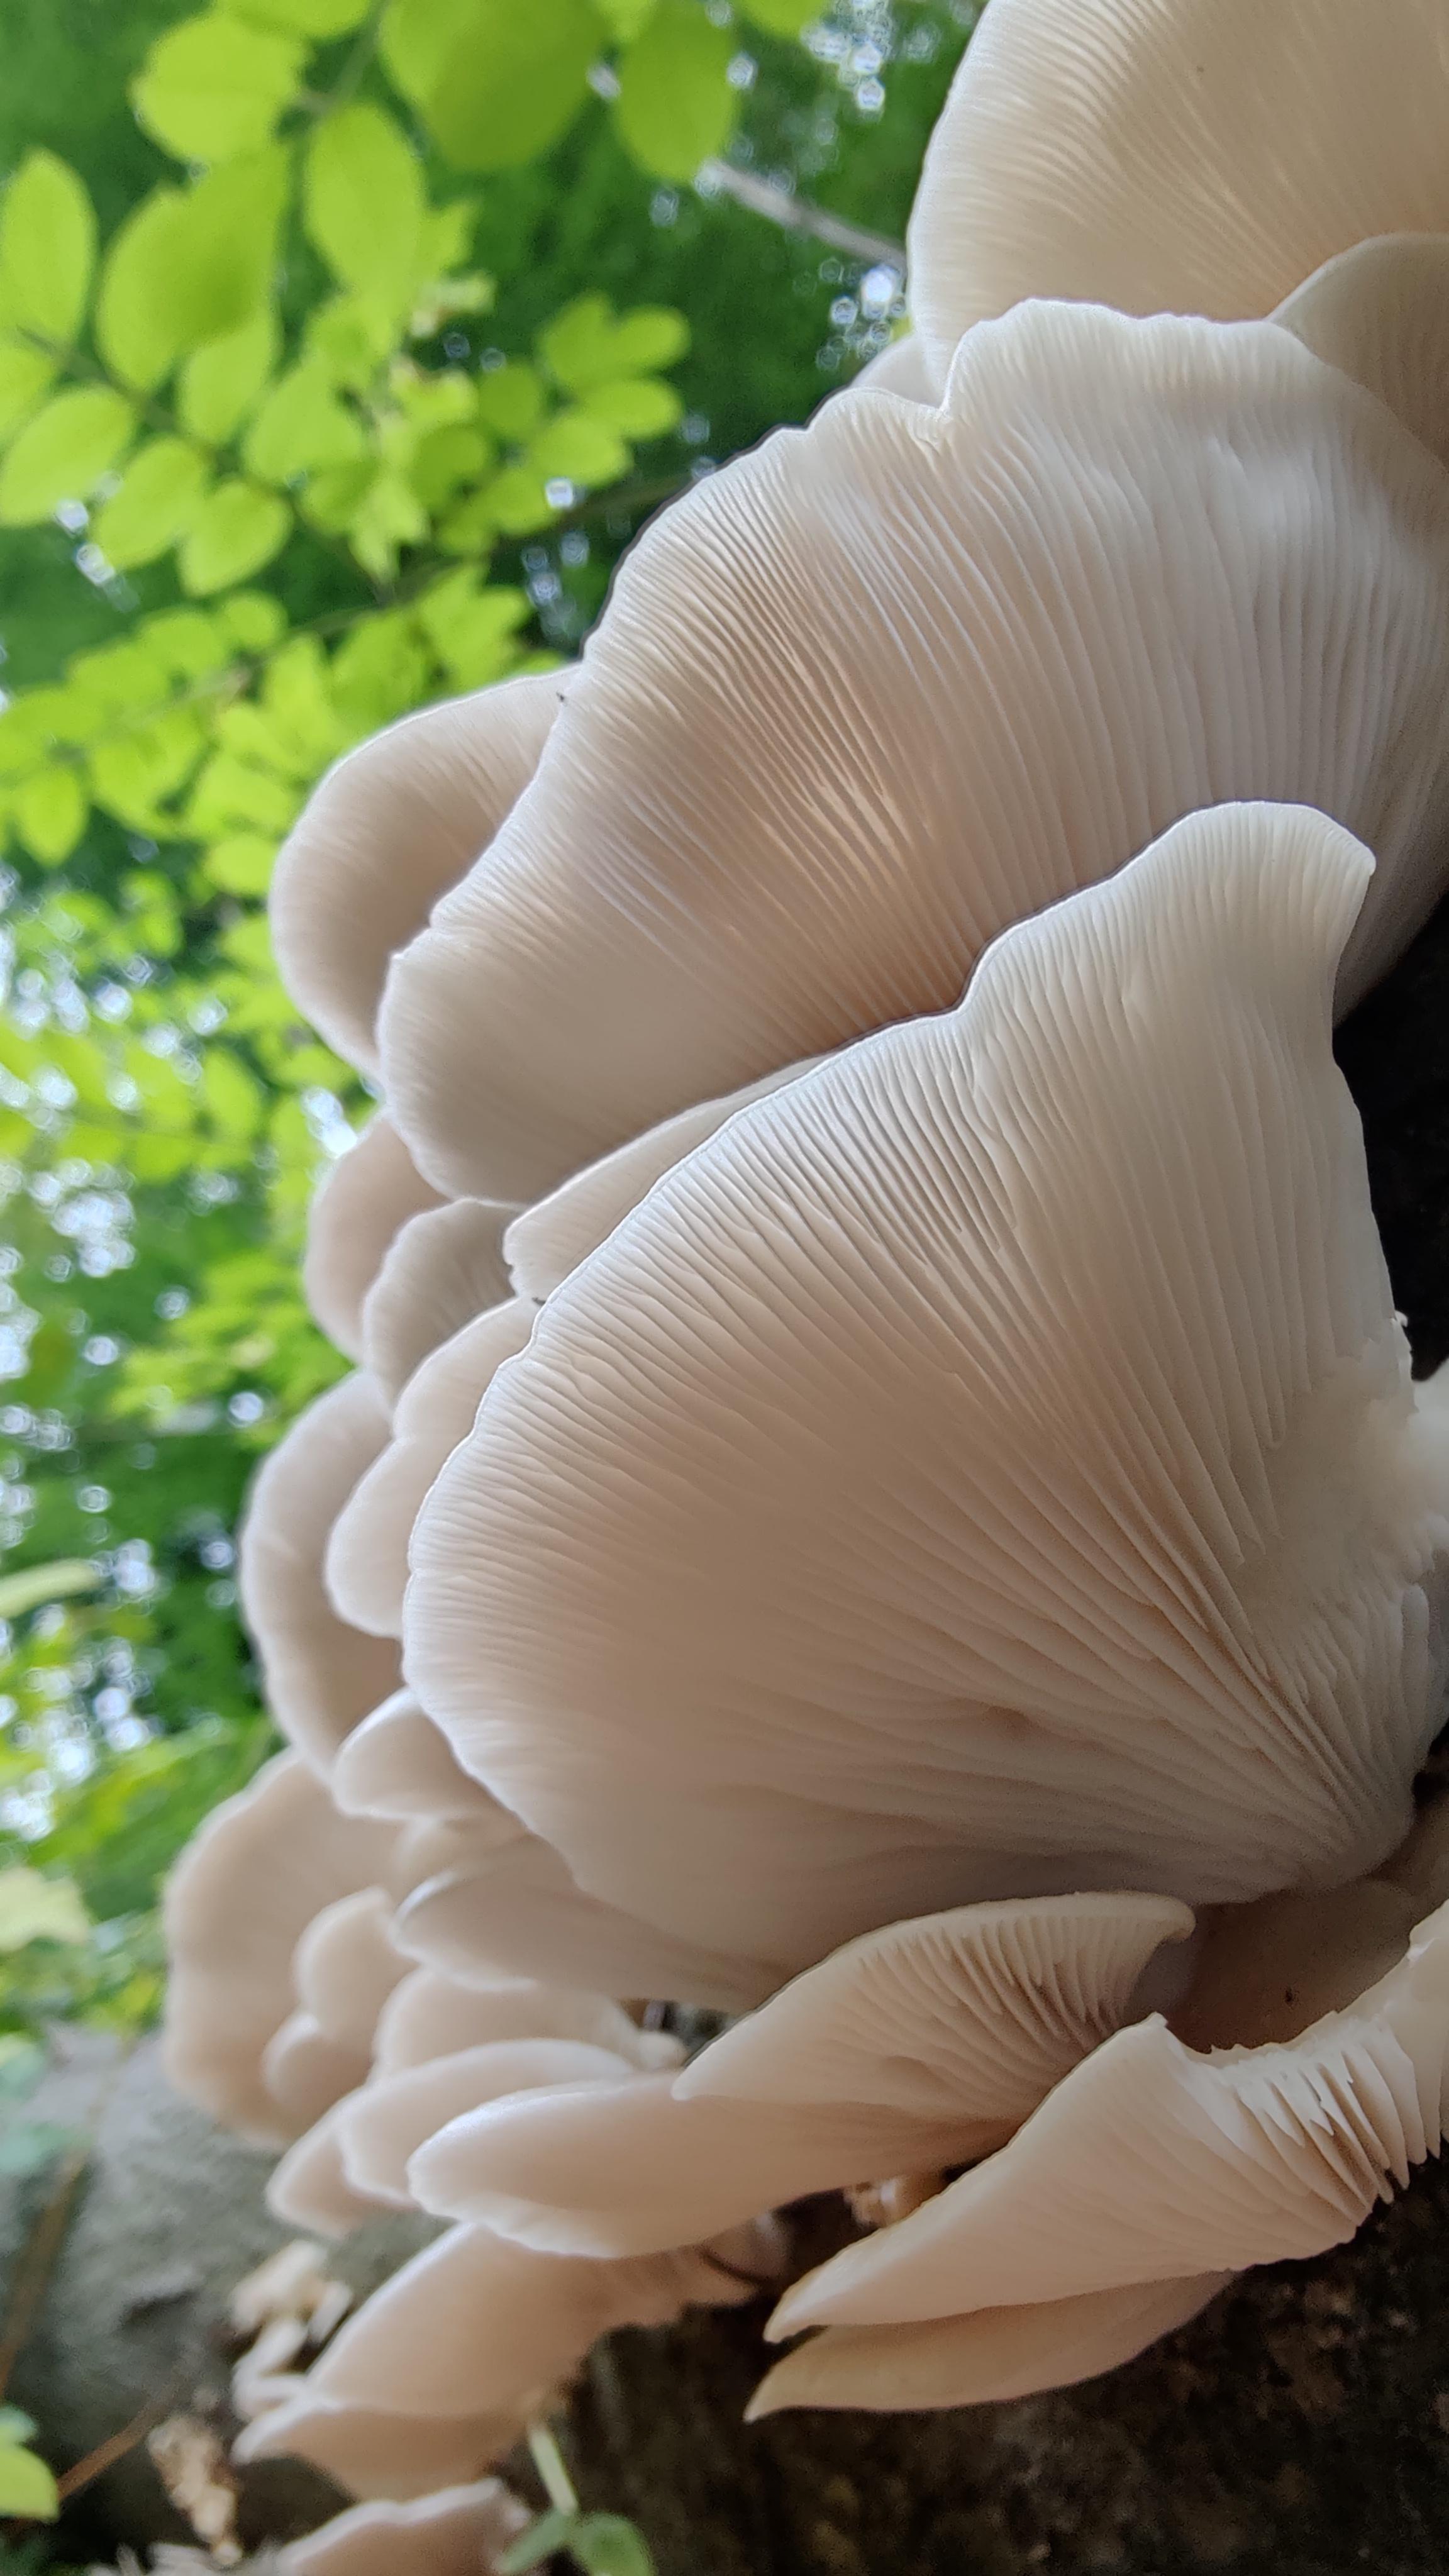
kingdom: Fungi
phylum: Basidiomycota
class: Agaricomycetes
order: Agaricales
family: Pleurotaceae
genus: Pleurotus
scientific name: Pleurotus pulmonarius
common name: sommer-østershat
